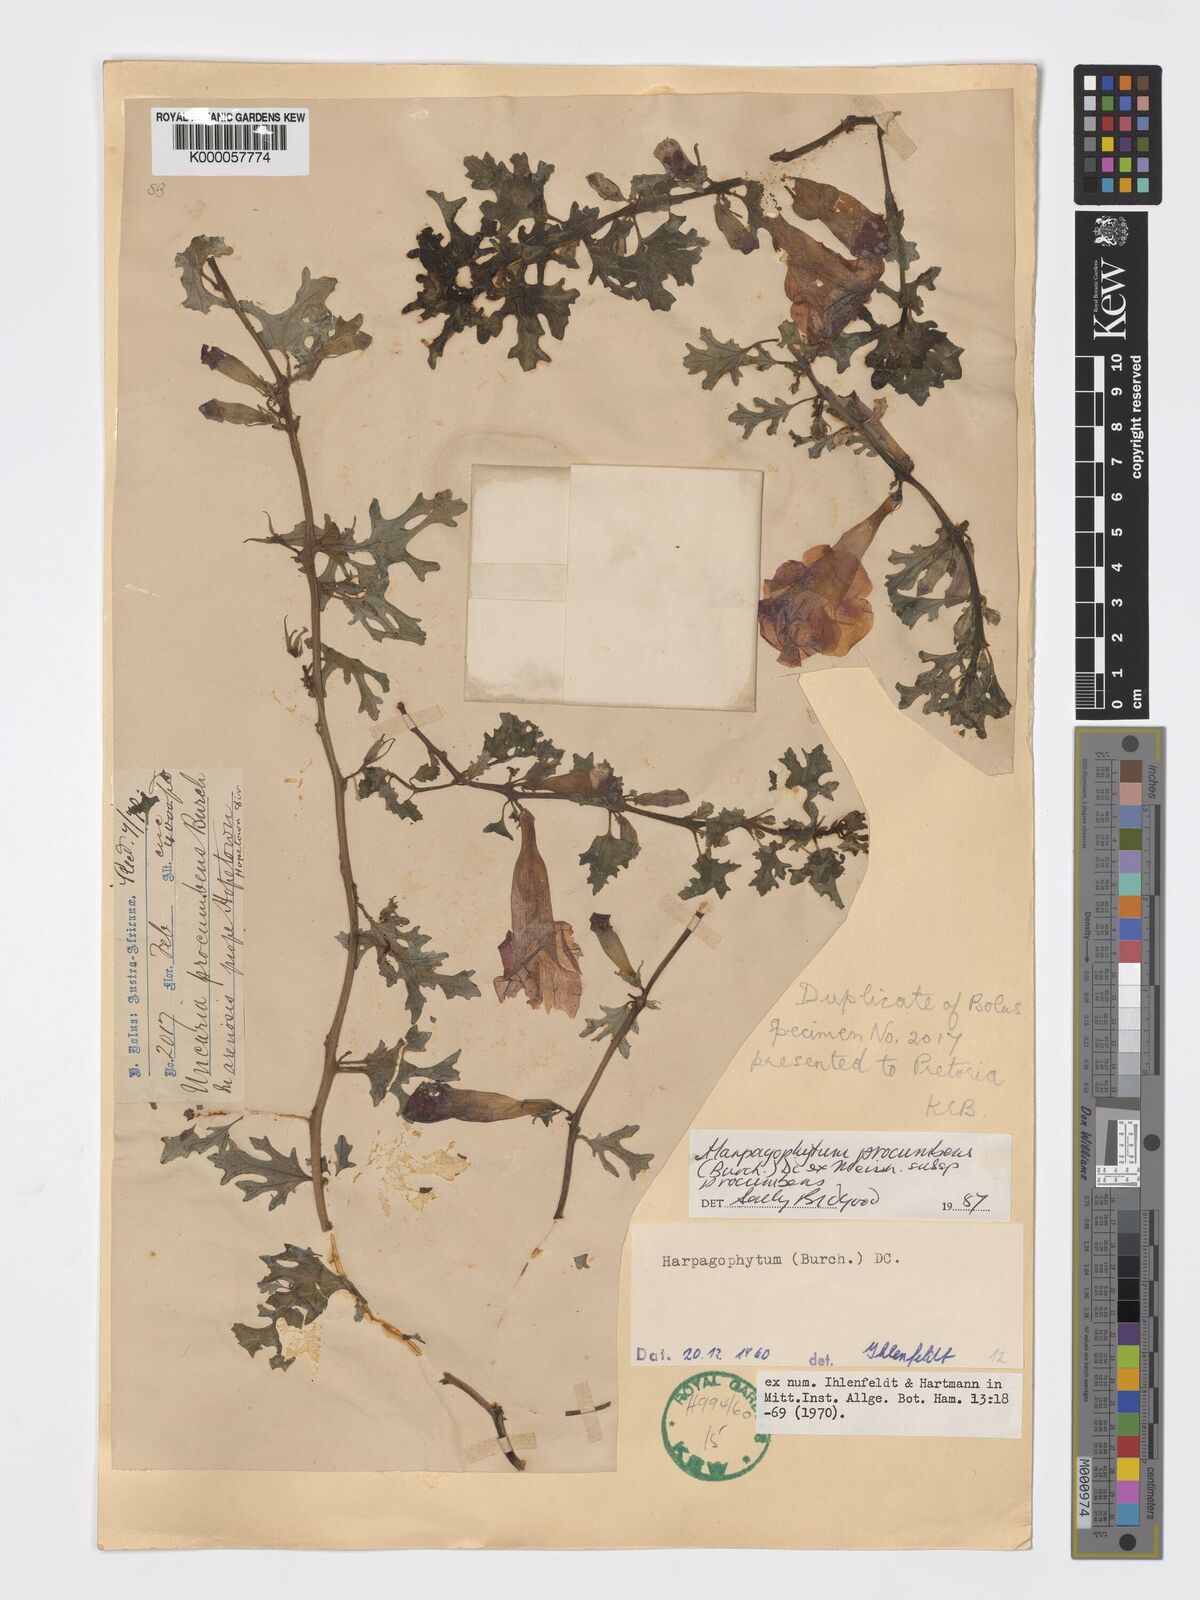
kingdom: Plantae
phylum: Tracheophyta
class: Magnoliopsida
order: Lamiales
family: Pedaliaceae
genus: Harpagophytum
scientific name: Harpagophytum procumbens
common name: Grappleplant
